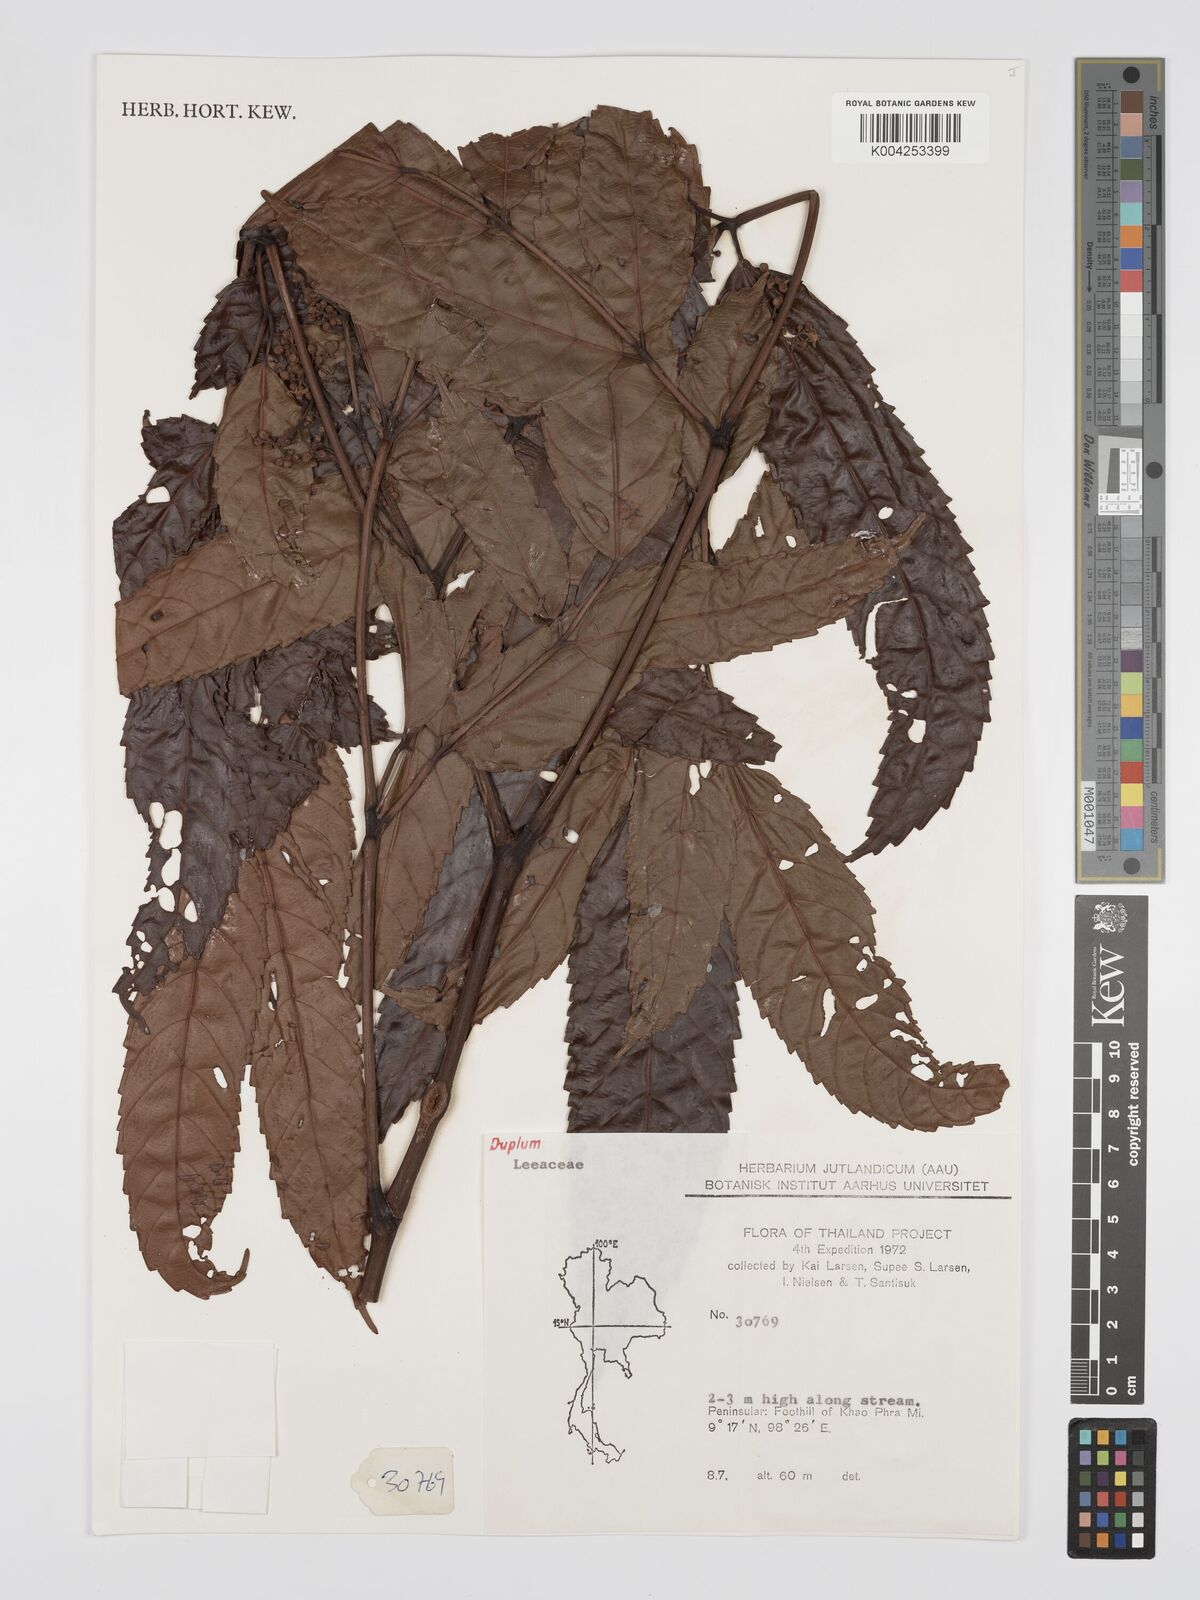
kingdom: Plantae
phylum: Tracheophyta
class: Magnoliopsida
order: Vitales
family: Vitaceae
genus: Leea
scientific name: Leea
